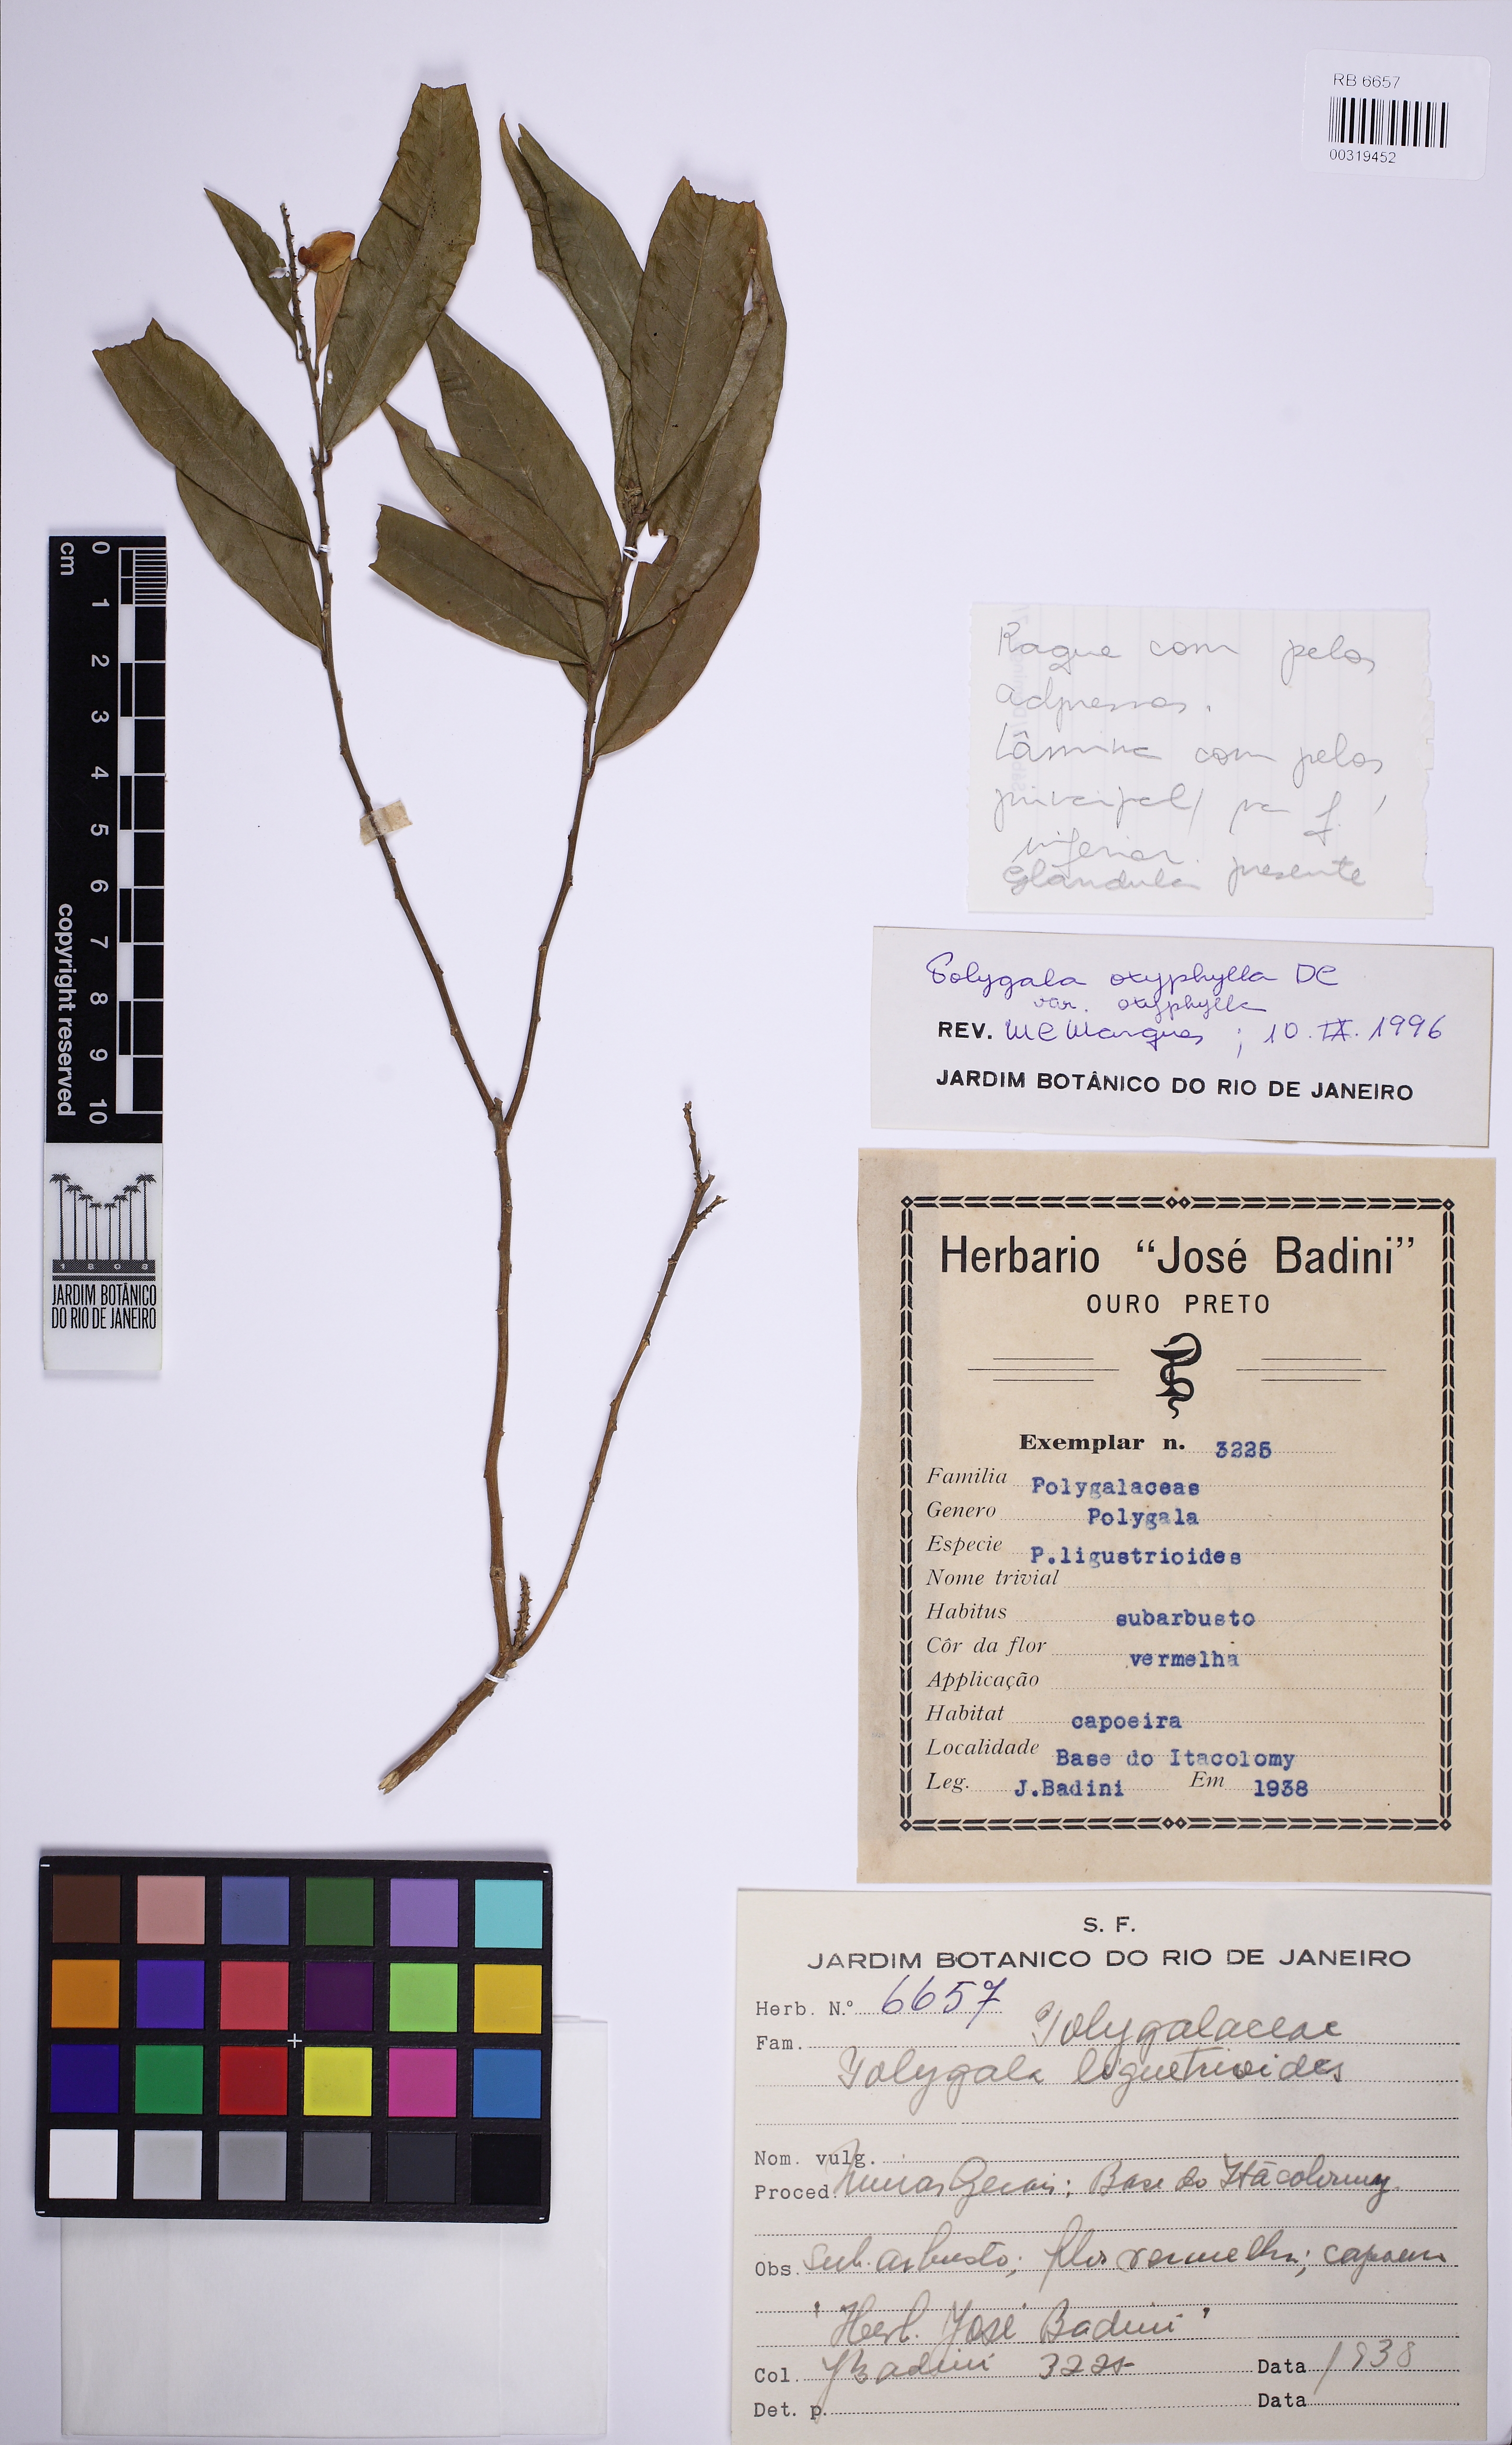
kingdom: Plantae
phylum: Tracheophyta
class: Magnoliopsida
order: Fabales
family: Polygalaceae
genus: Caamembeca
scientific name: Caamembeca
